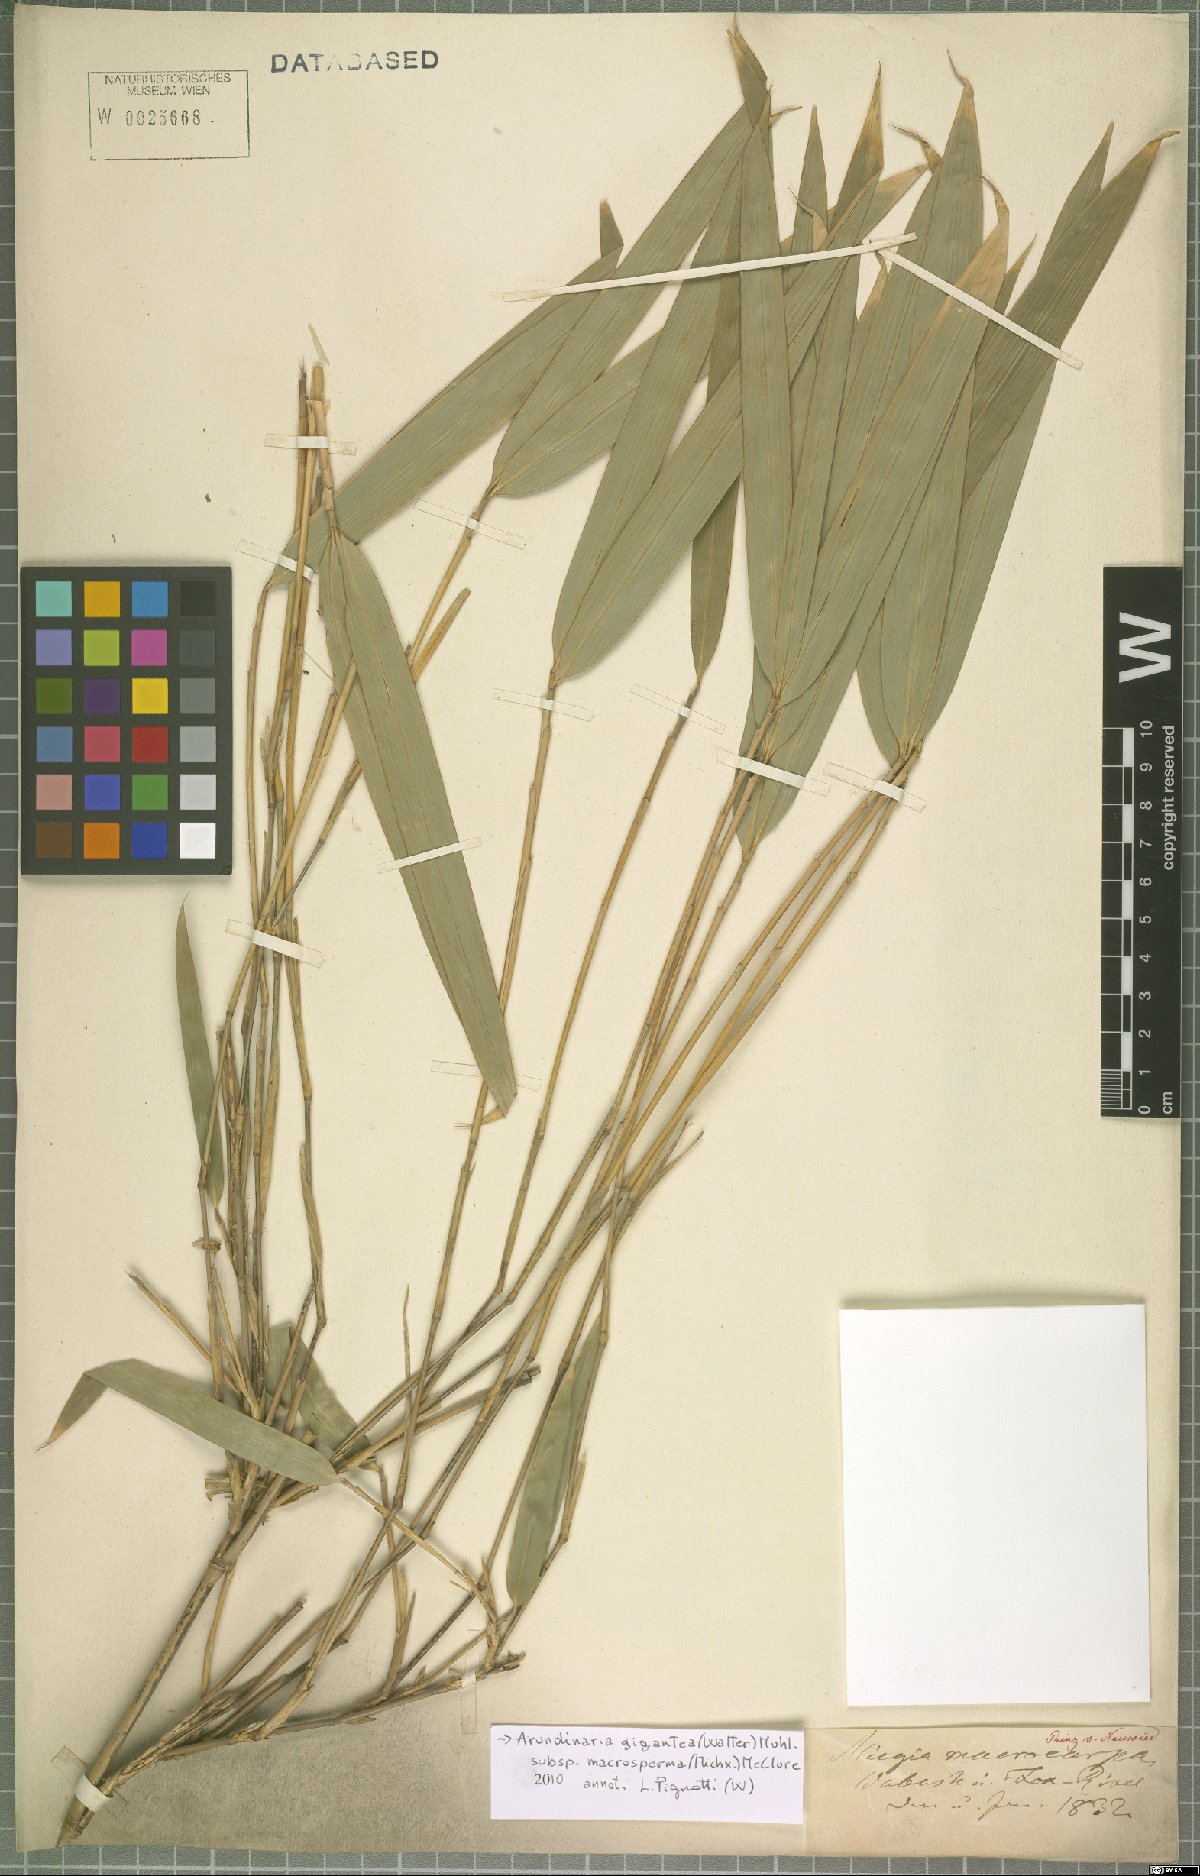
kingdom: Plantae
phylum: Tracheophyta
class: Liliopsida
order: Poales
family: Poaceae
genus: Arundinaria
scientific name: Arundinaria gigantea
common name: Giant cane
